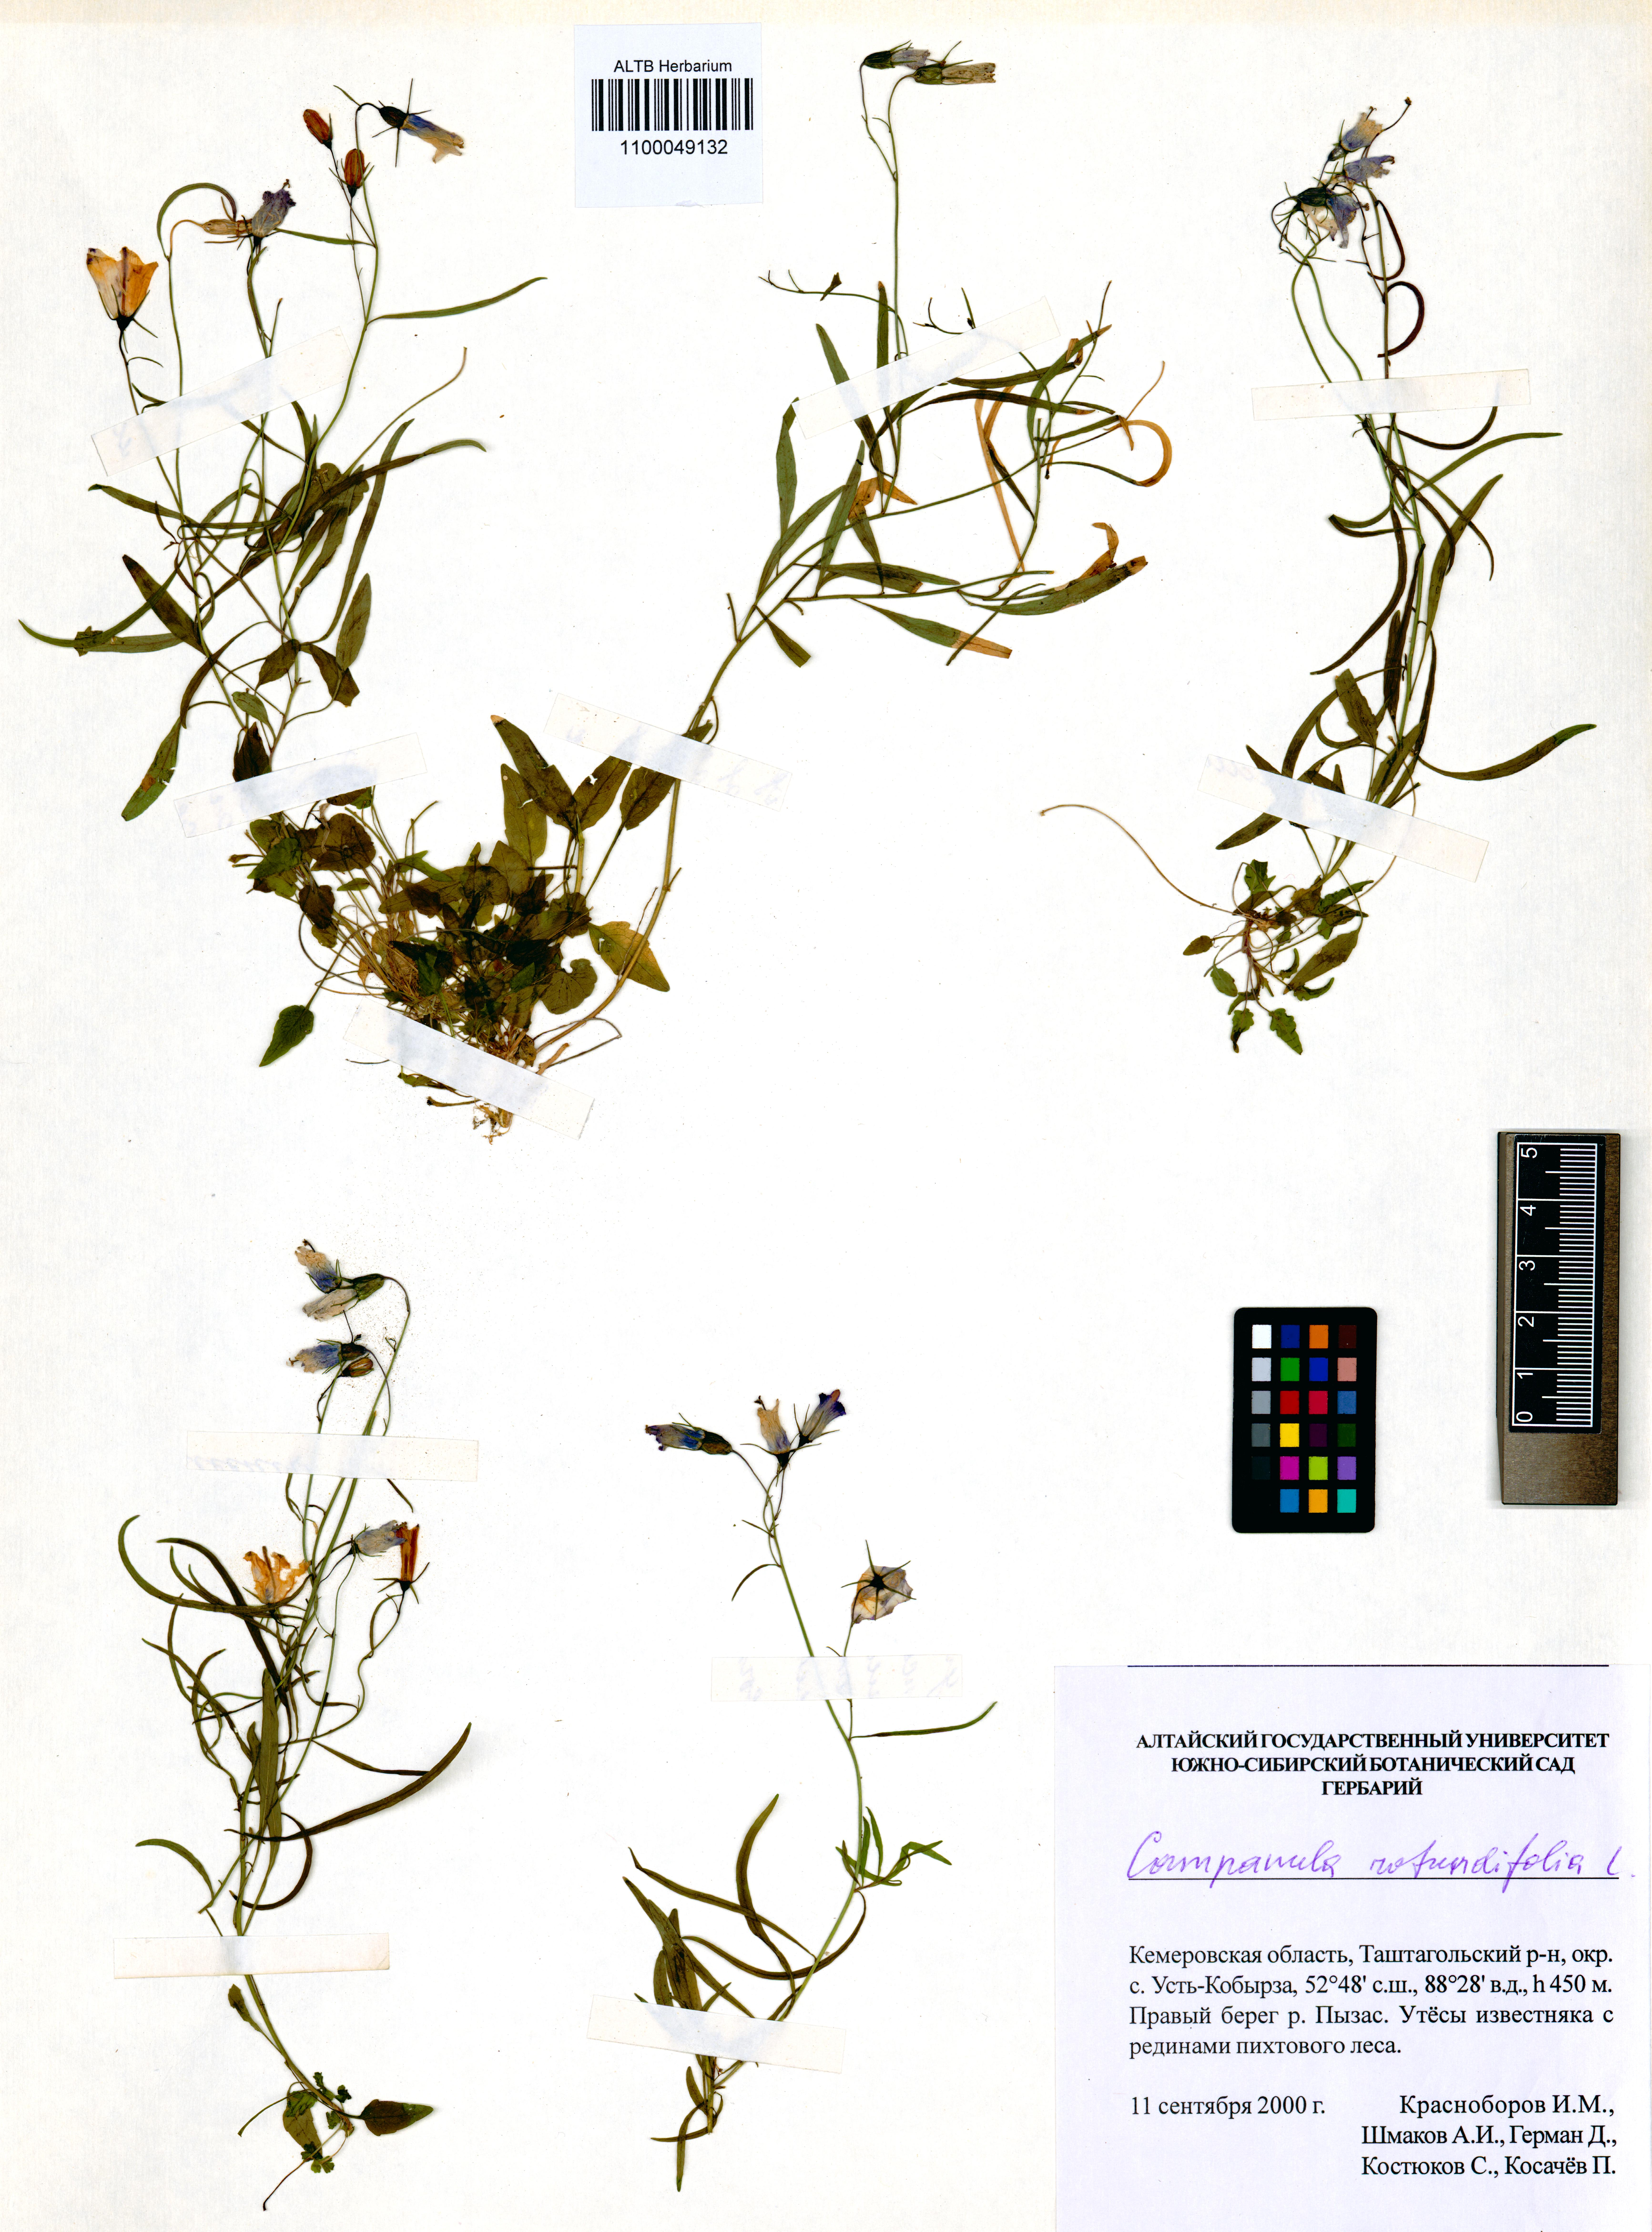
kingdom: Plantae
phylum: Tracheophyta
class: Magnoliopsida
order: Asterales
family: Campanulaceae
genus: Campanula
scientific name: Campanula rotundifolia
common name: Harebell
